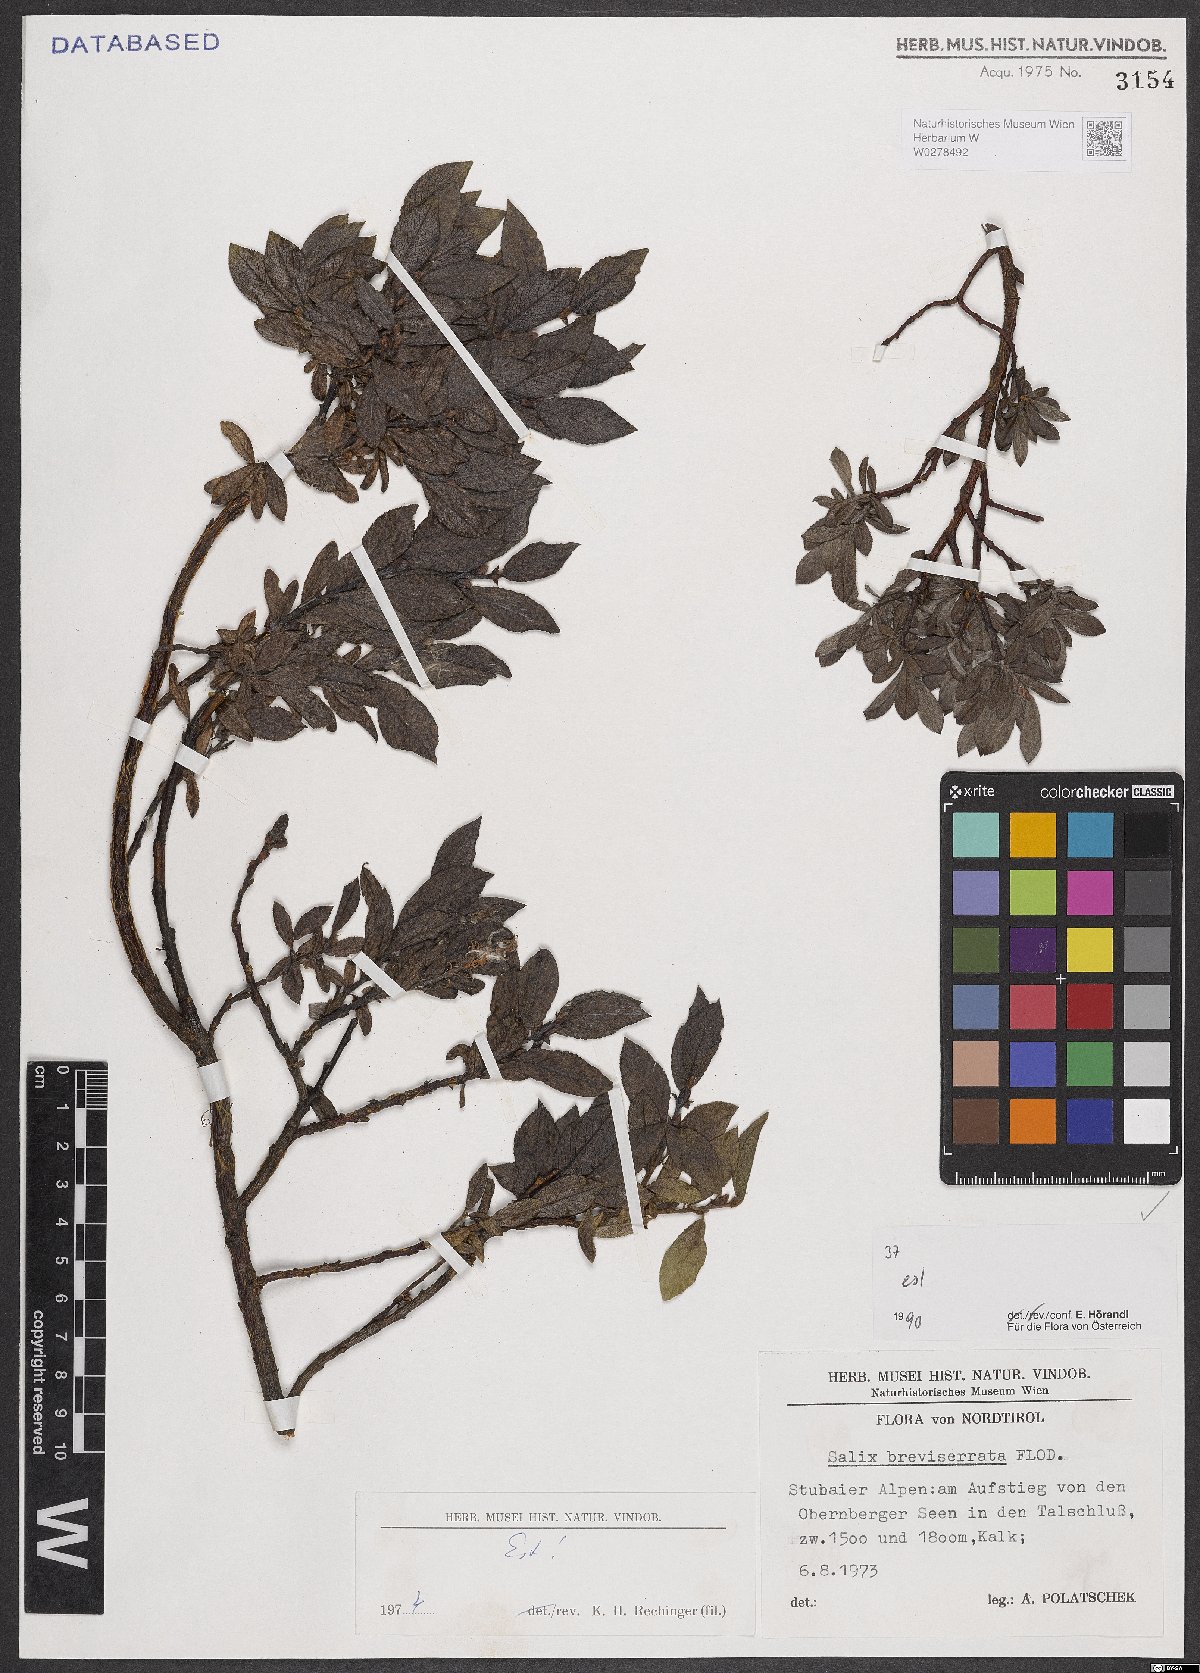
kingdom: Plantae
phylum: Tracheophyta
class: Magnoliopsida
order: Malpighiales
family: Salicaceae
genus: Salix
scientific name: Salix breviserrata
